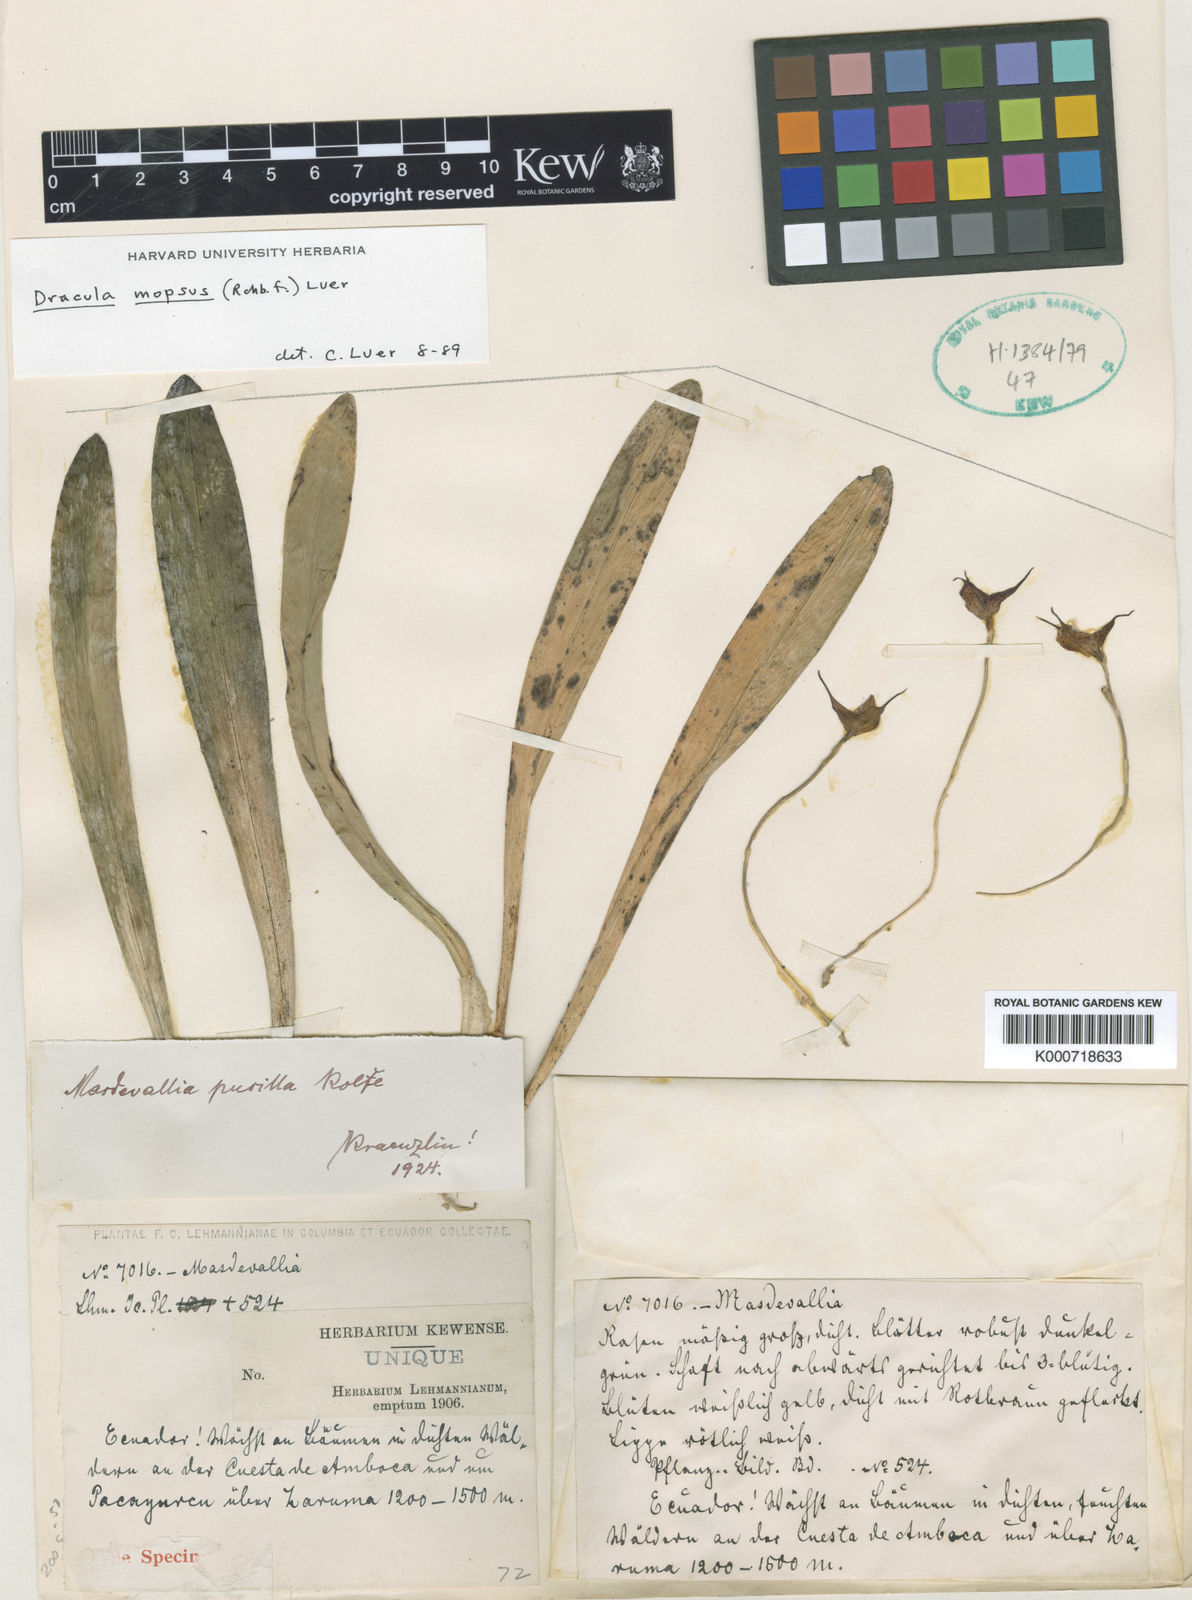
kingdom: Plantae
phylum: Tracheophyta
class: Liliopsida
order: Asparagales
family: Orchidaceae
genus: Dracula
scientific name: Dracula mopsus
